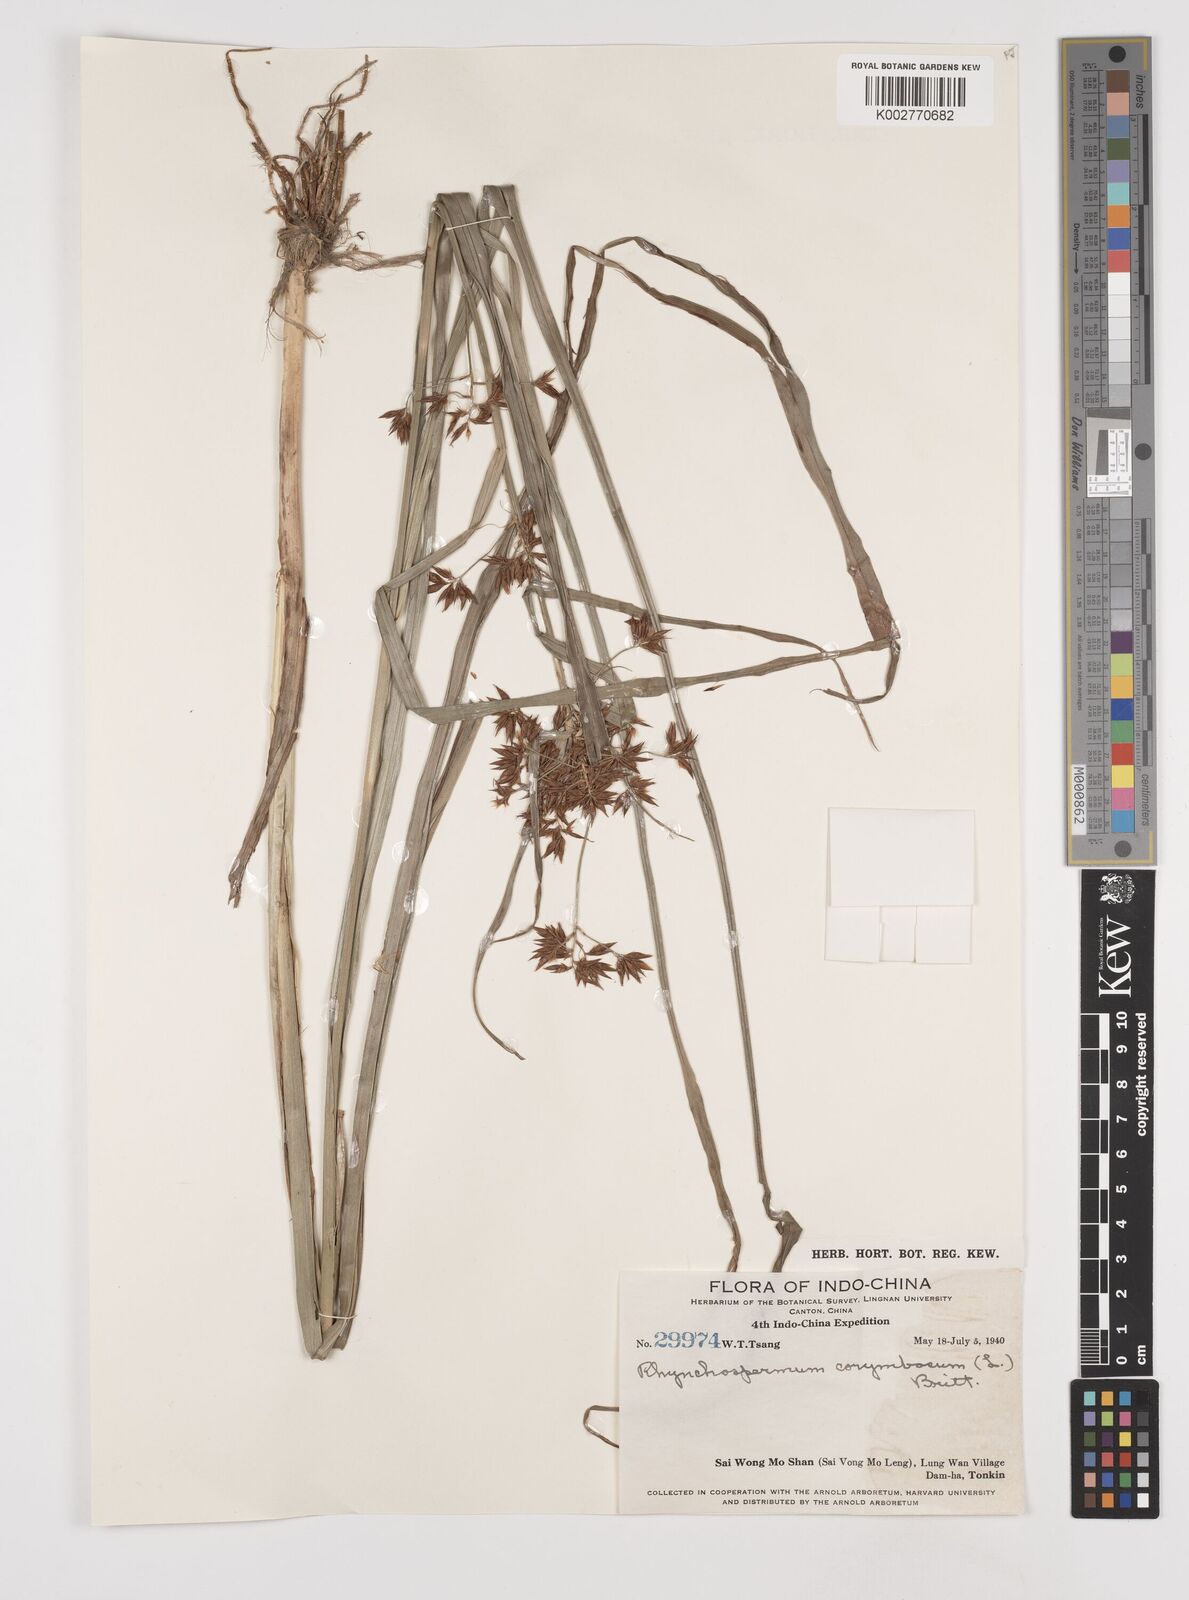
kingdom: Plantae
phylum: Tracheophyta
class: Liliopsida
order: Poales
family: Cyperaceae
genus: Rhynchospora
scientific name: Rhynchospora corymbosa
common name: Golden beak sedge
